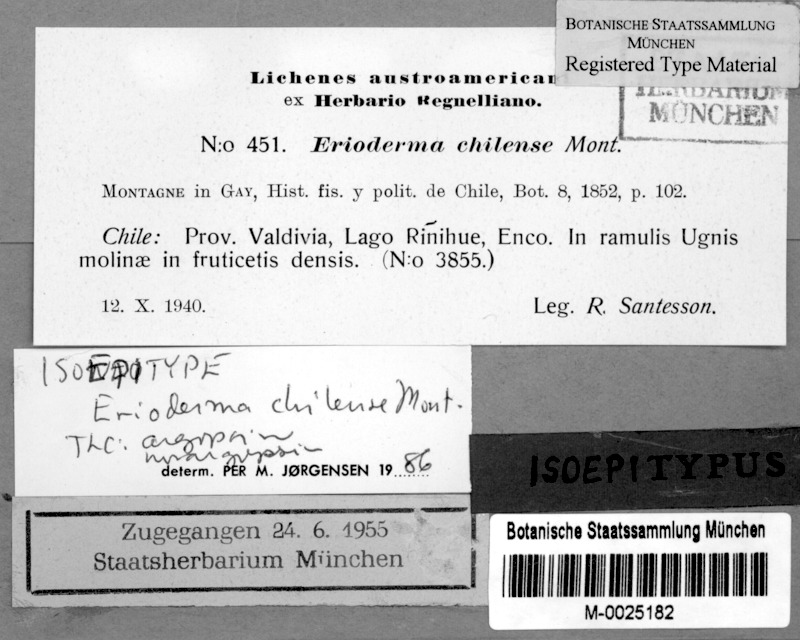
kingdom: Fungi
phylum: Ascomycota
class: Lecanoromycetes
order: Peltigerales
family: Pannariaceae
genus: Erioderma
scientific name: Erioderma leylandii
